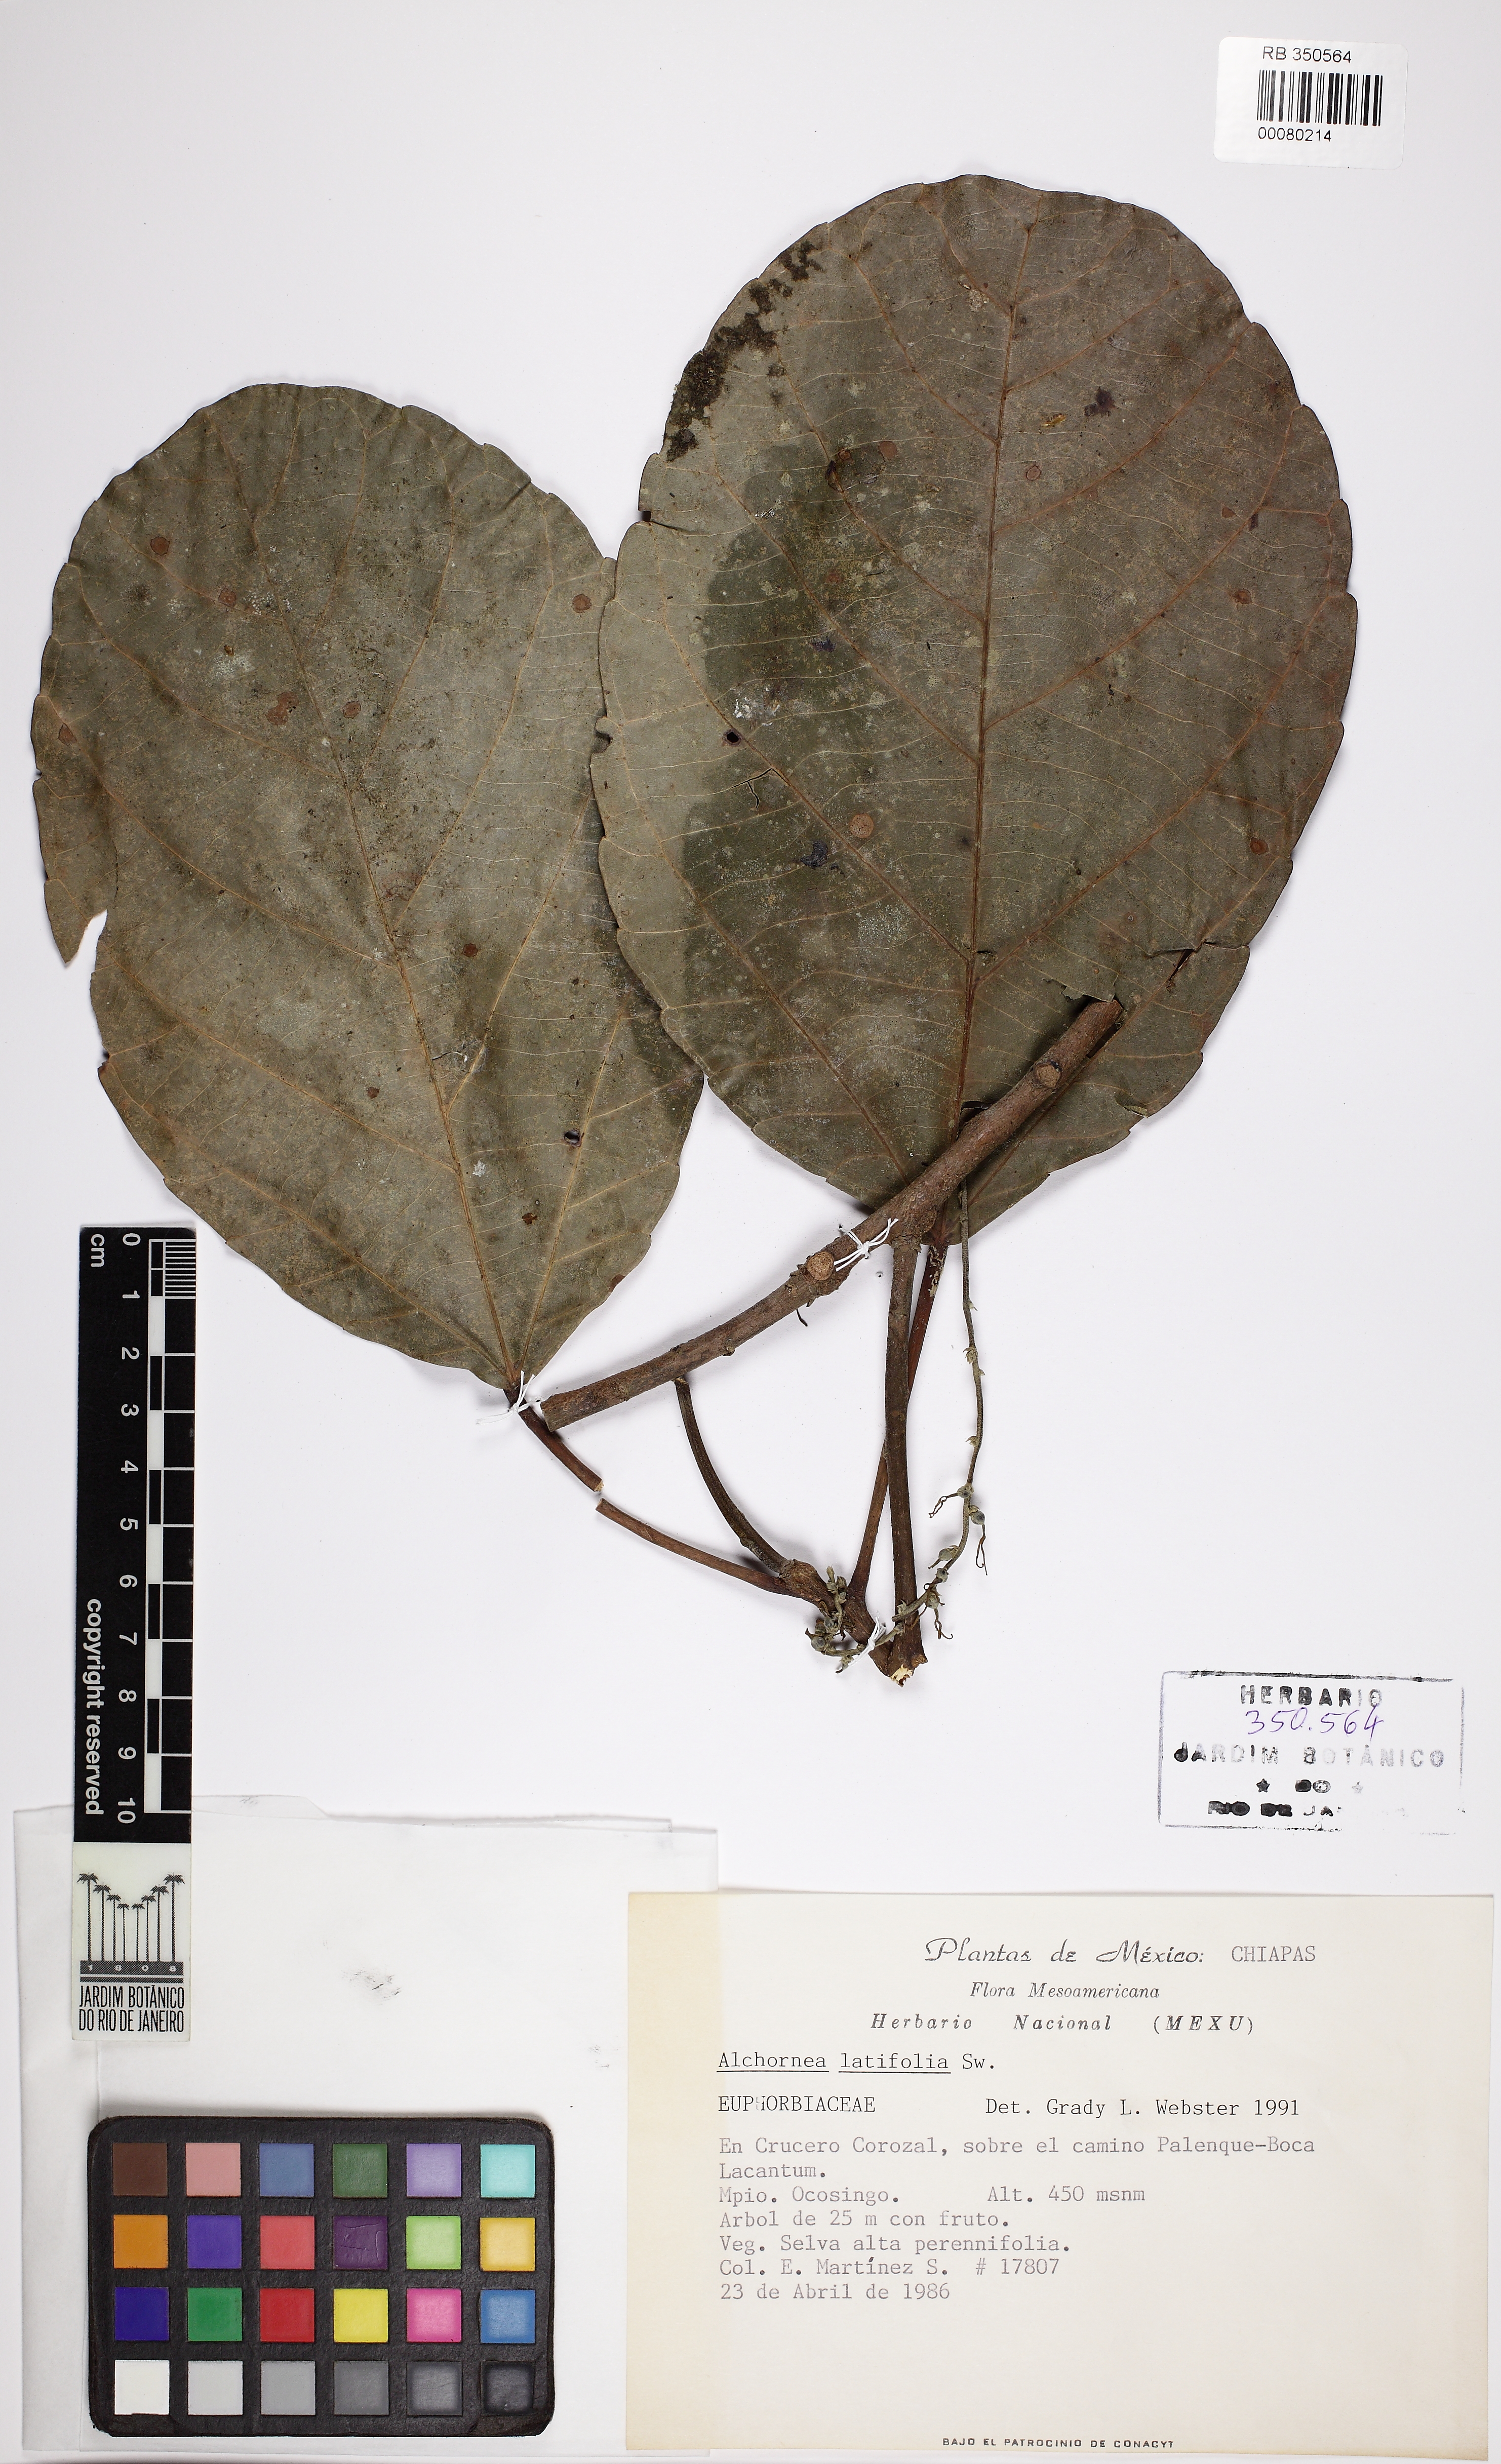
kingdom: Plantae
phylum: Tracheophyta
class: Magnoliopsida
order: Malpighiales
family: Euphorbiaceae
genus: Alchornea
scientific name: Alchornea latifolia
